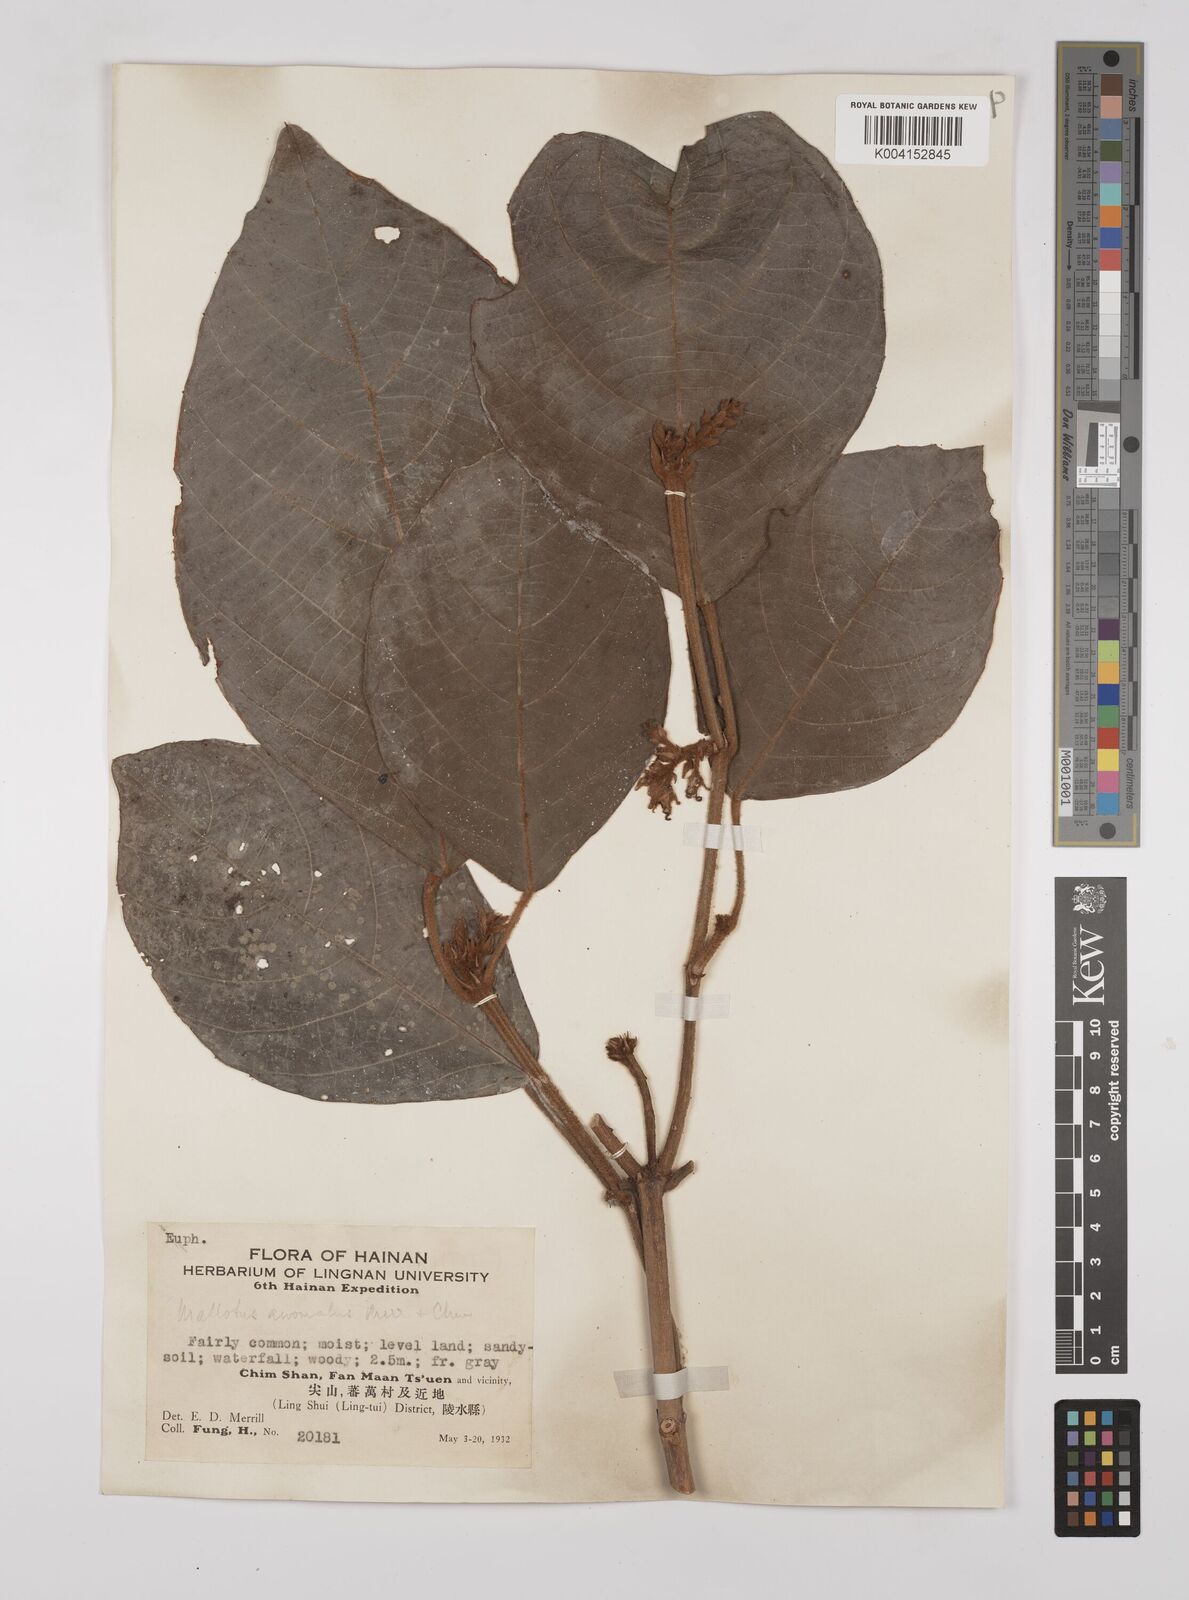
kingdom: Plantae
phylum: Tracheophyta
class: Magnoliopsida
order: Malpighiales
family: Euphorbiaceae
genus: Mallotus
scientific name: Mallotus anomalus
